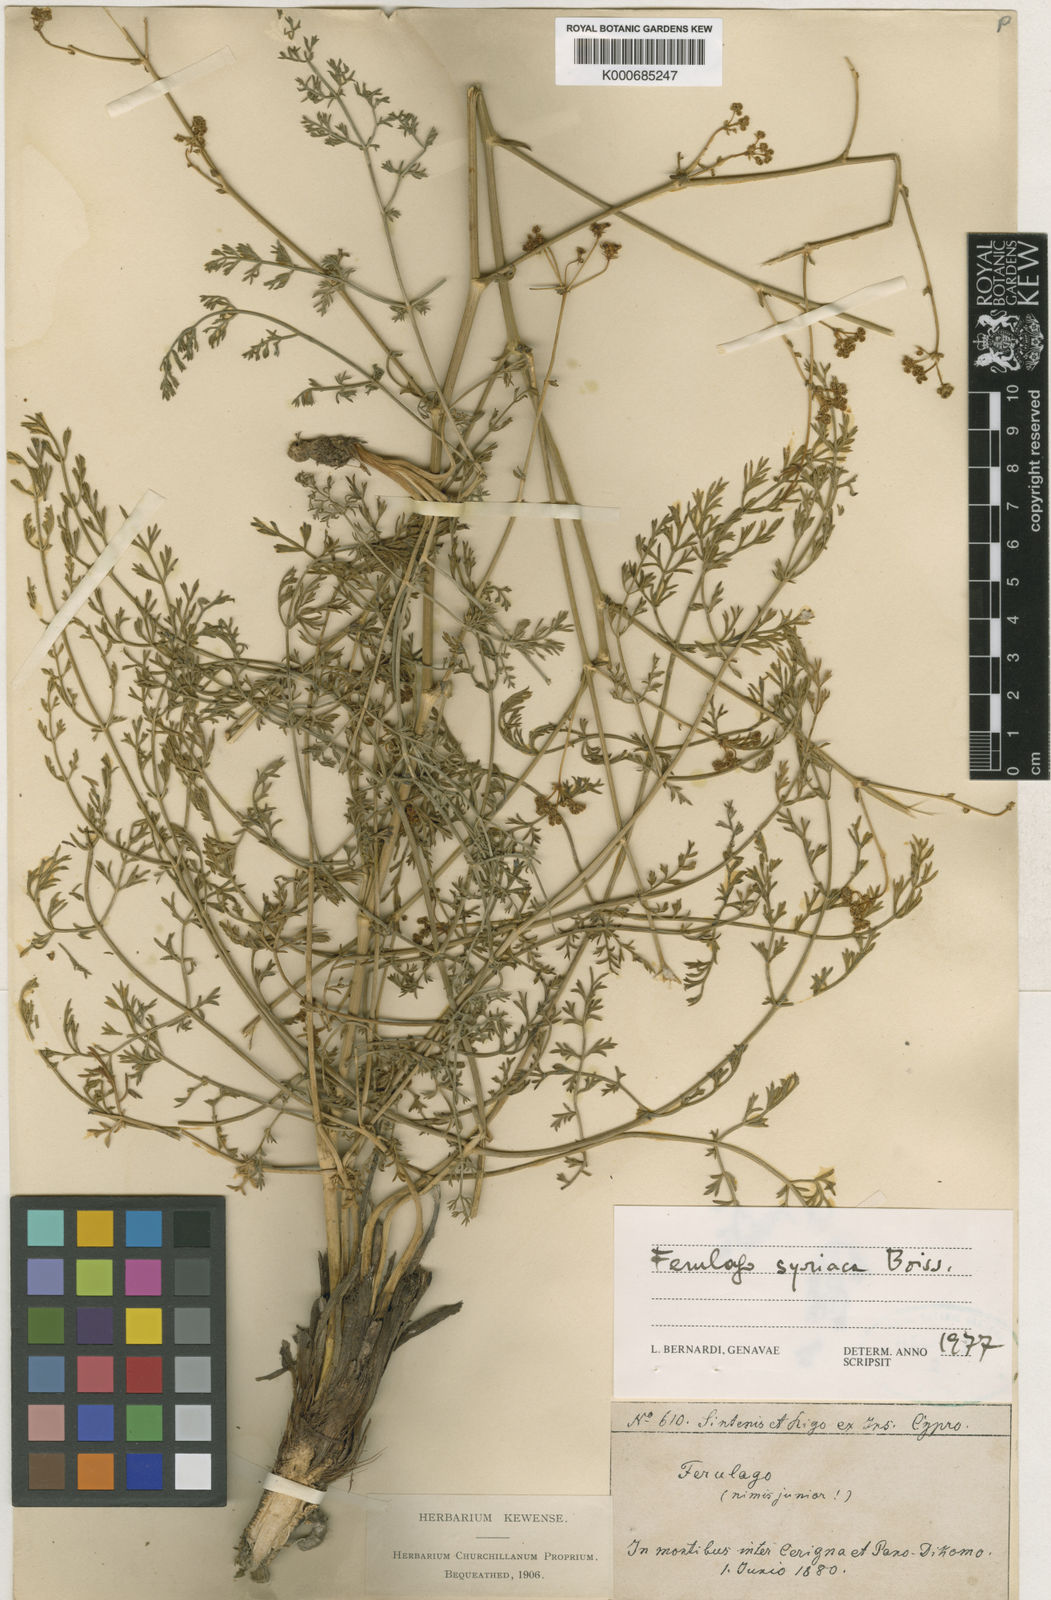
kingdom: Plantae
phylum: Tracheophyta
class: Magnoliopsida
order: Apiales
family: Apiaceae
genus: Ferulago
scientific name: Ferulago syriaca
